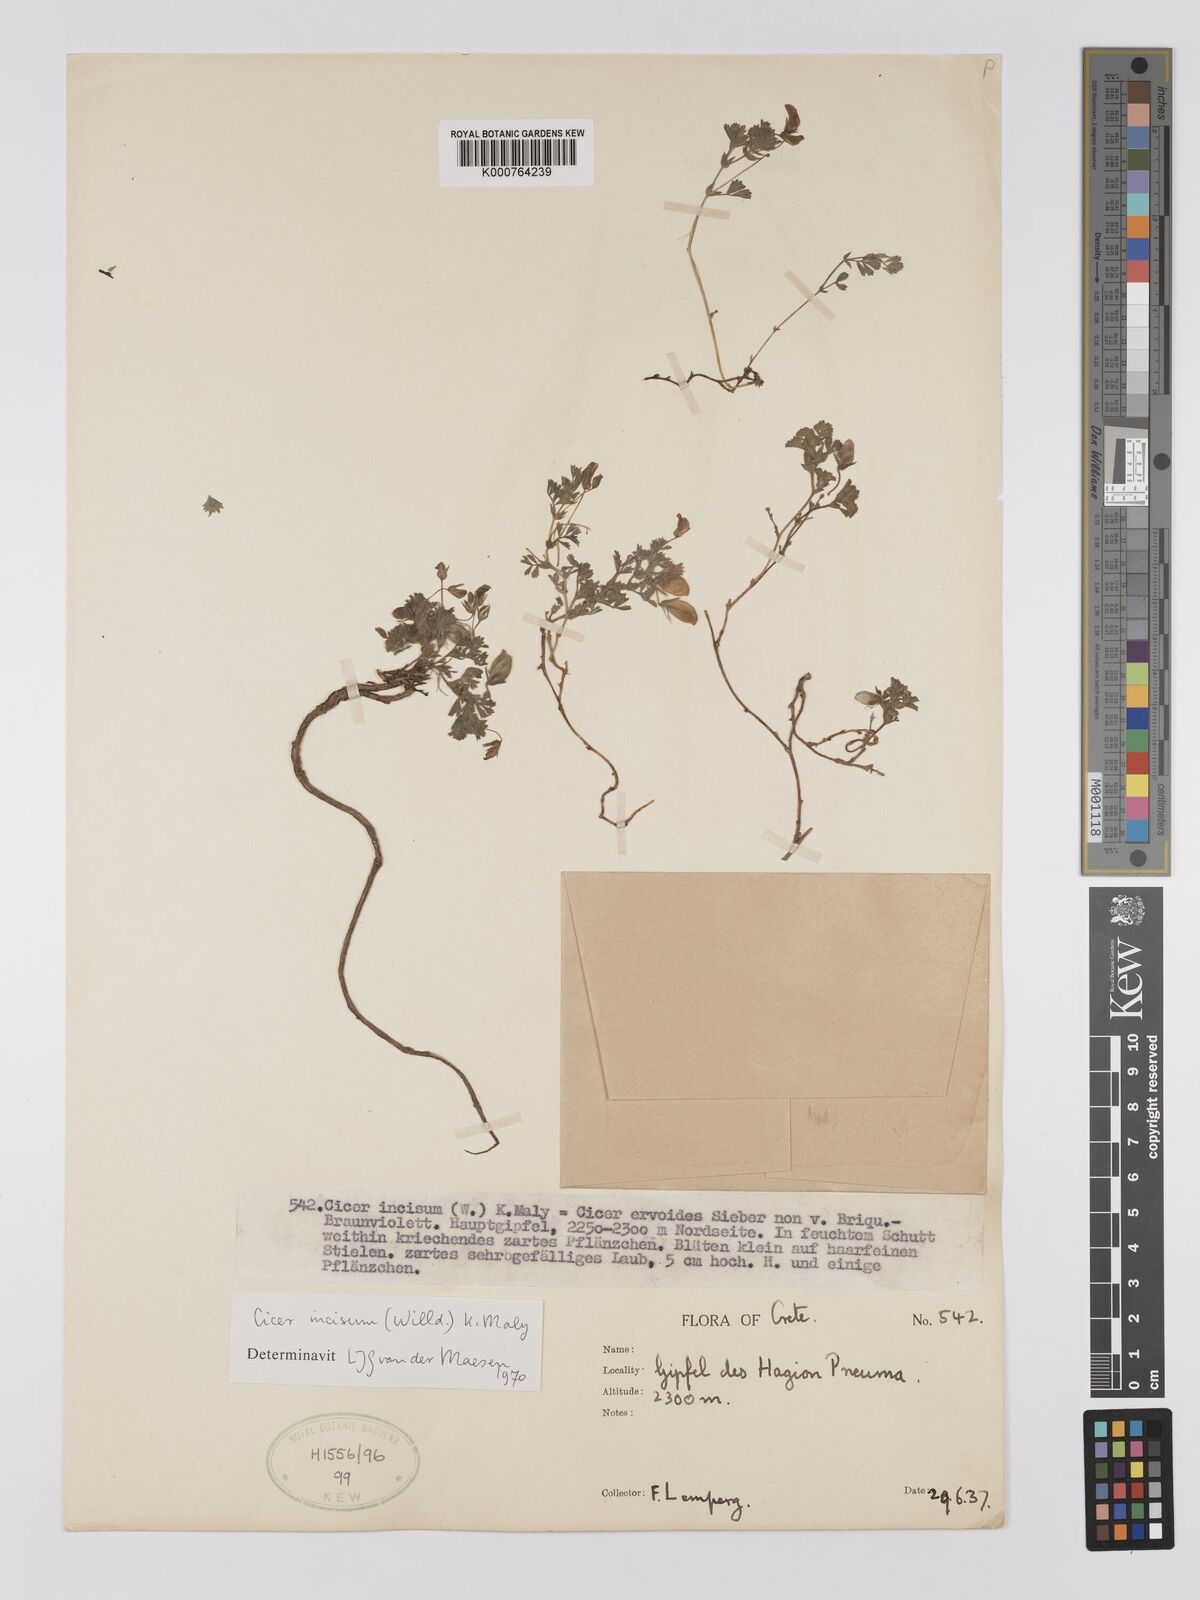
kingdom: Plantae
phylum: Tracheophyta
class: Magnoliopsida
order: Fabales
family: Fabaceae
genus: Cicer
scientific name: Cicer incisum
